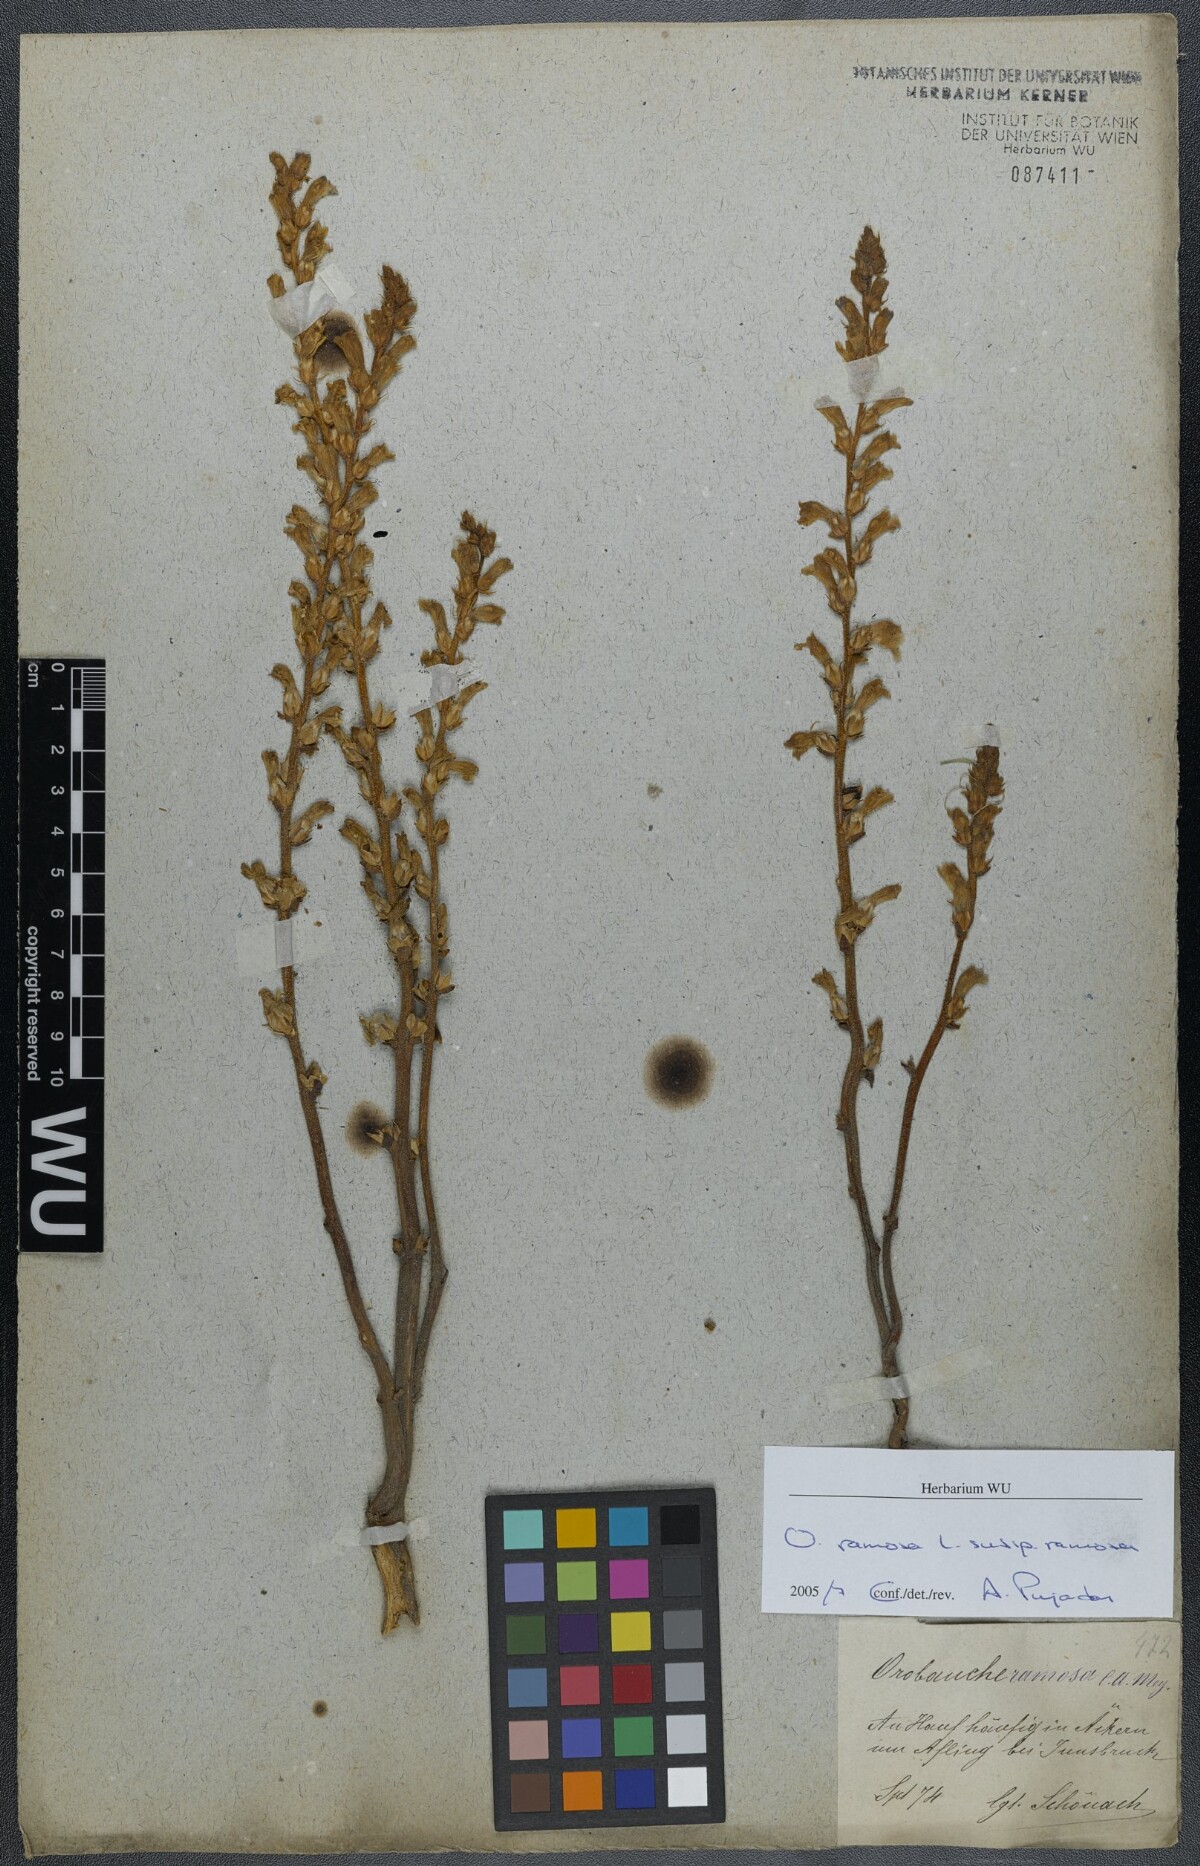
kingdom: Plantae
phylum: Tracheophyta
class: Magnoliopsida
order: Lamiales
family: Orobanchaceae
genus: Phelipanche
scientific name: Phelipanche ramosa
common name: Branched broomrape
